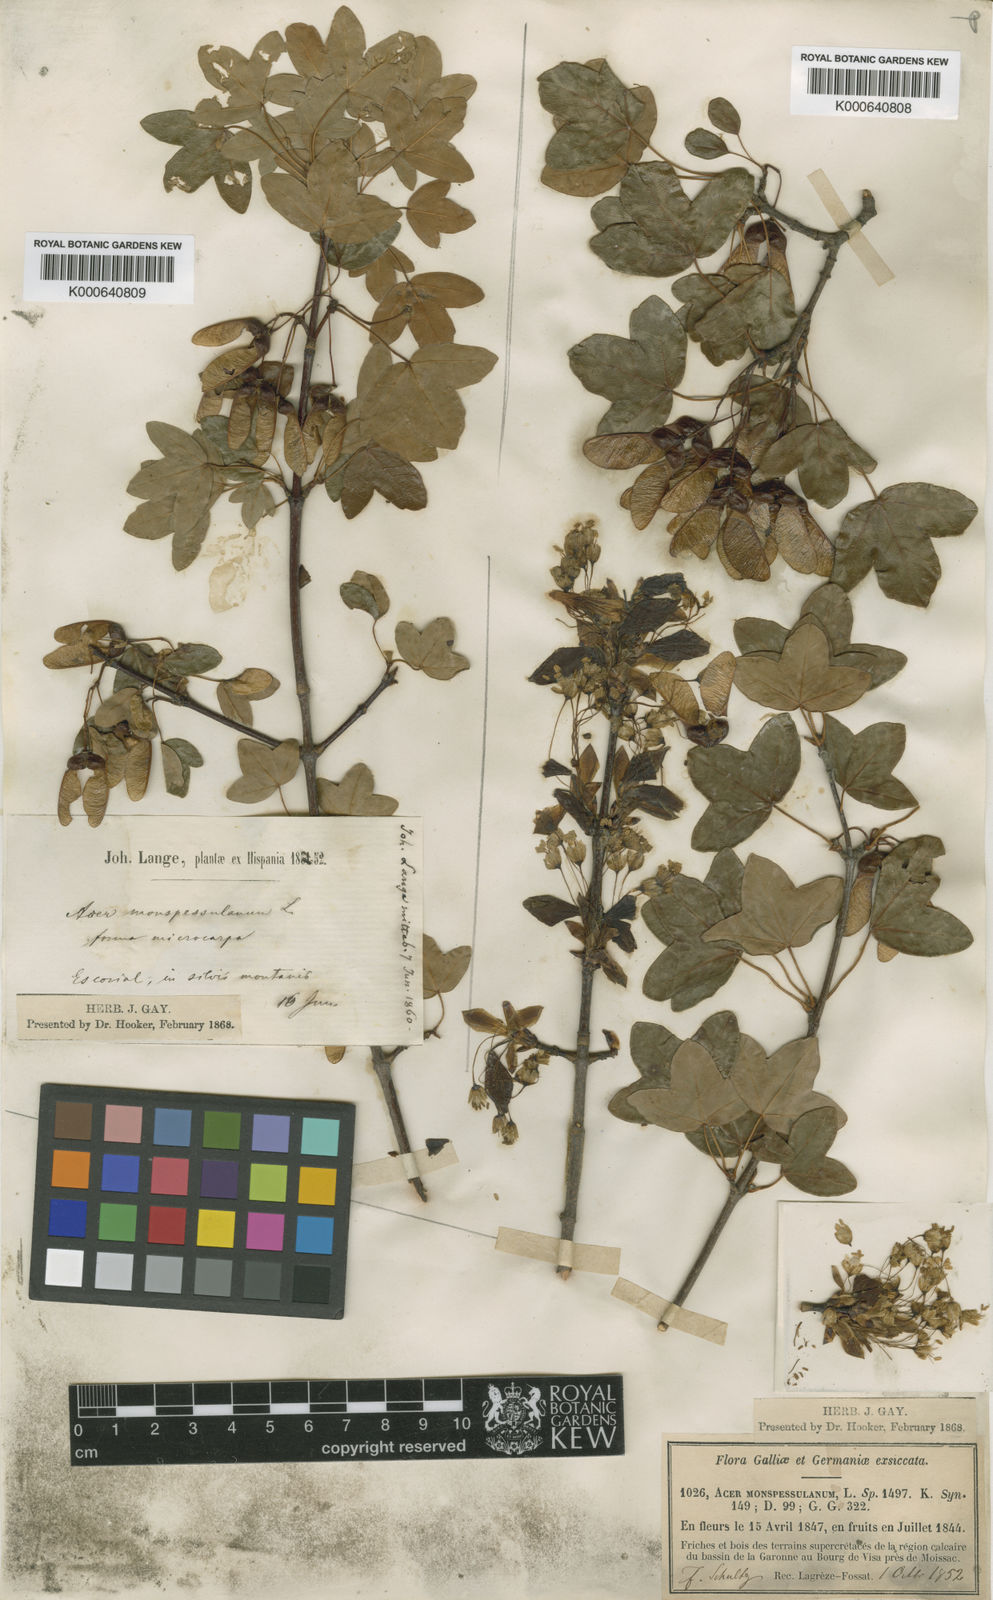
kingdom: Plantae
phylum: Tracheophyta
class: Magnoliopsida
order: Sapindales
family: Sapindaceae
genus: Acer
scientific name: Acer monspessulanum
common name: Montpellier maple
